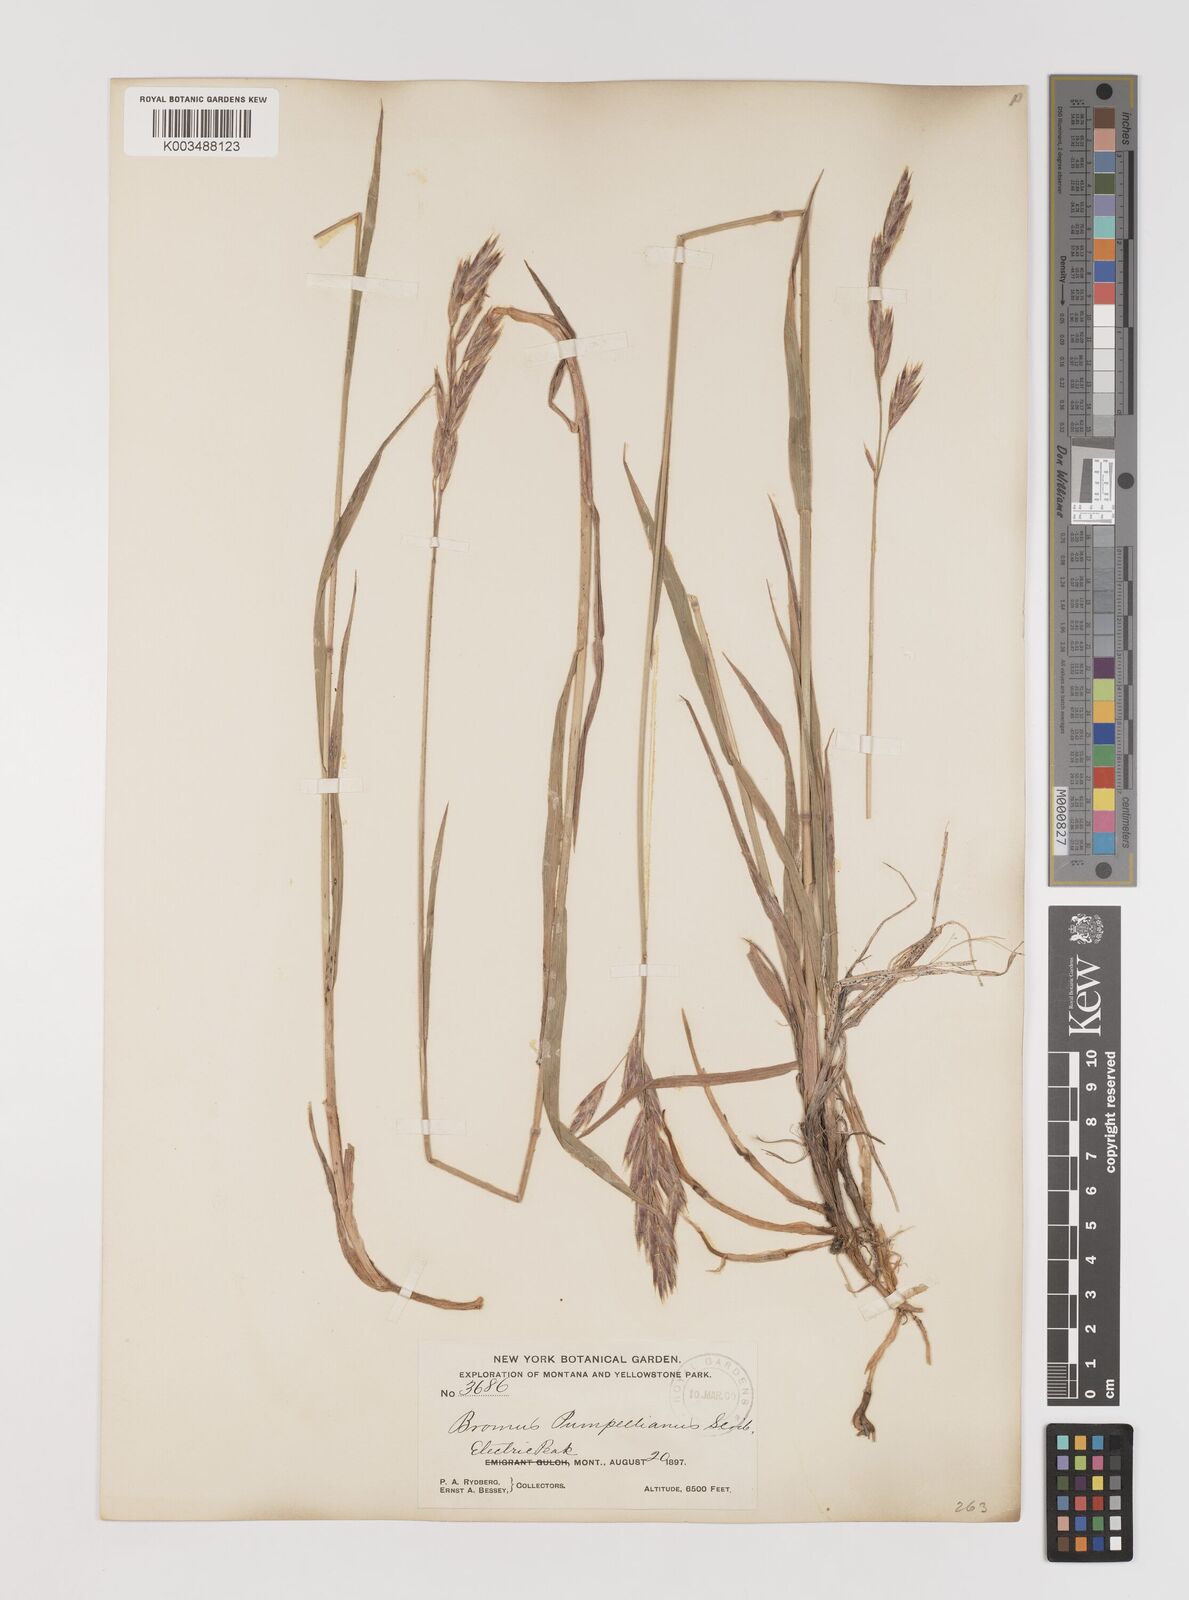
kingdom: Plantae
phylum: Tracheophyta
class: Liliopsida
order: Poales
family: Poaceae
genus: Bromus
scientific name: Bromus pumpellianus
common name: Pumpelly's brome
